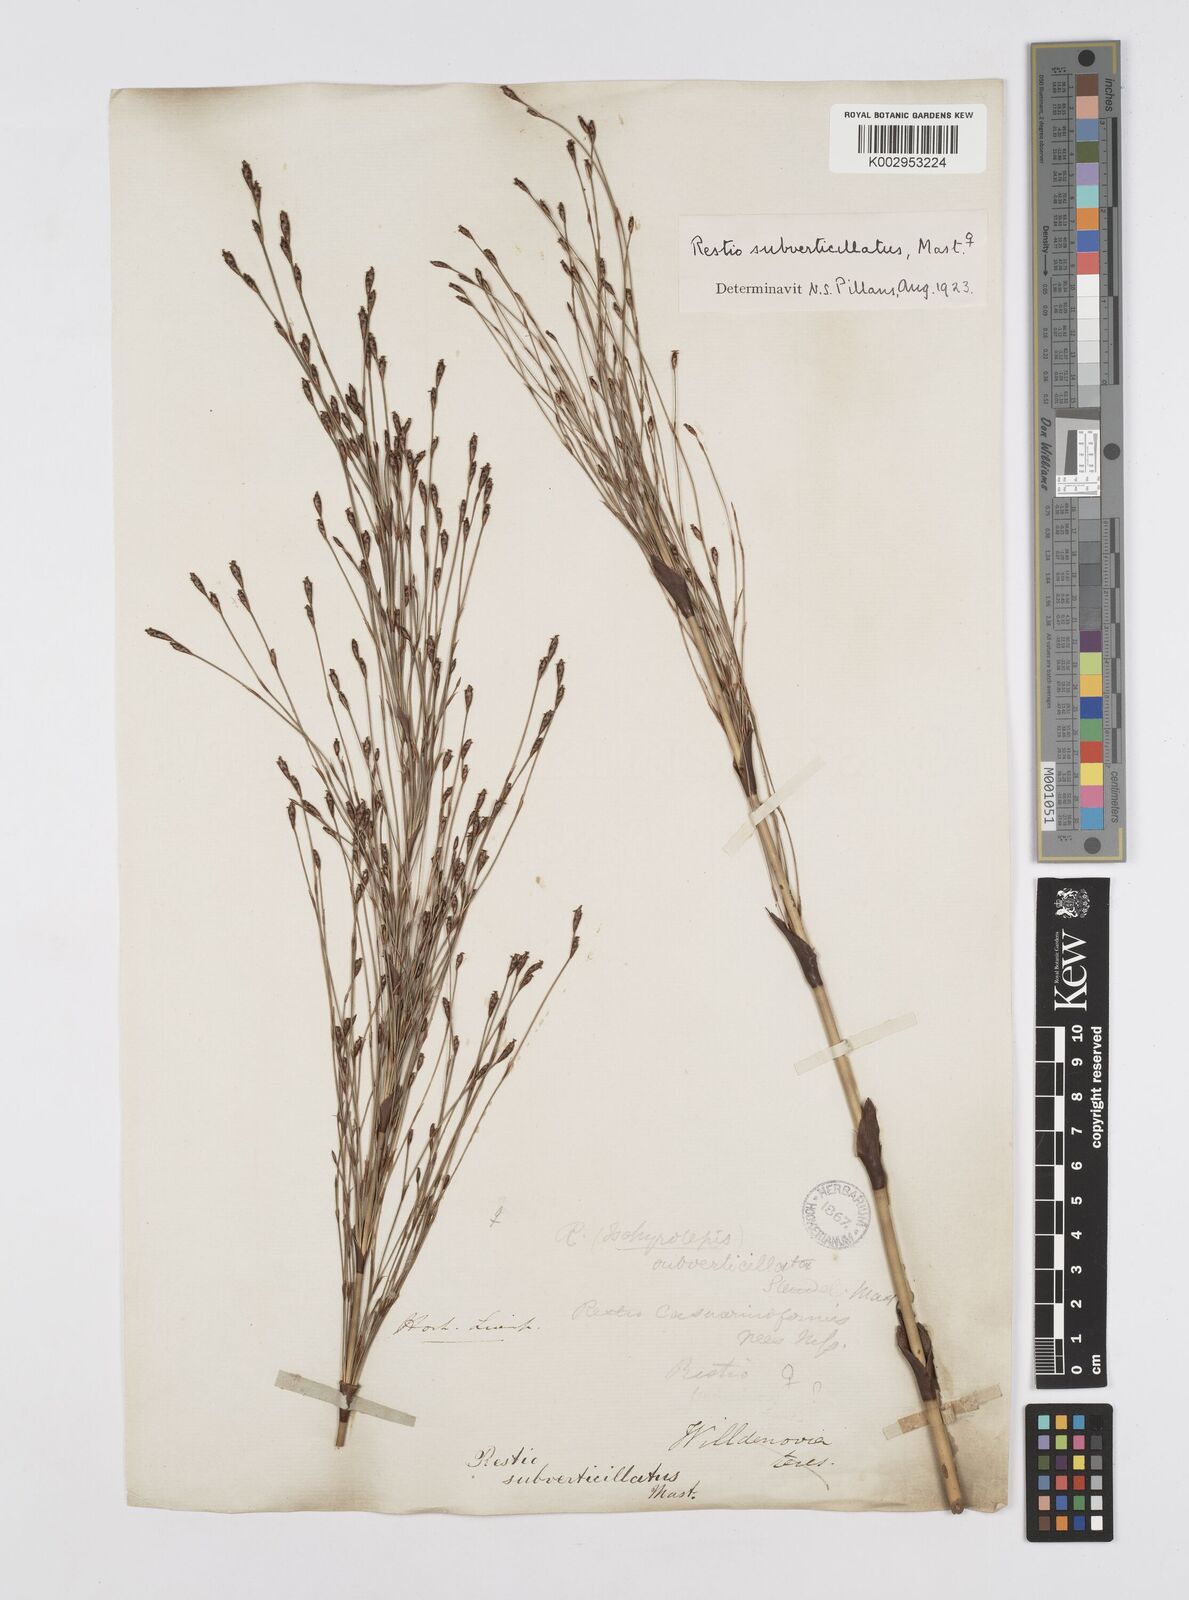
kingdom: Plantae
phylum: Tracheophyta
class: Liliopsida
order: Poales
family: Restionaceae
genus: Restio
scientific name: Restio subverticillatus
